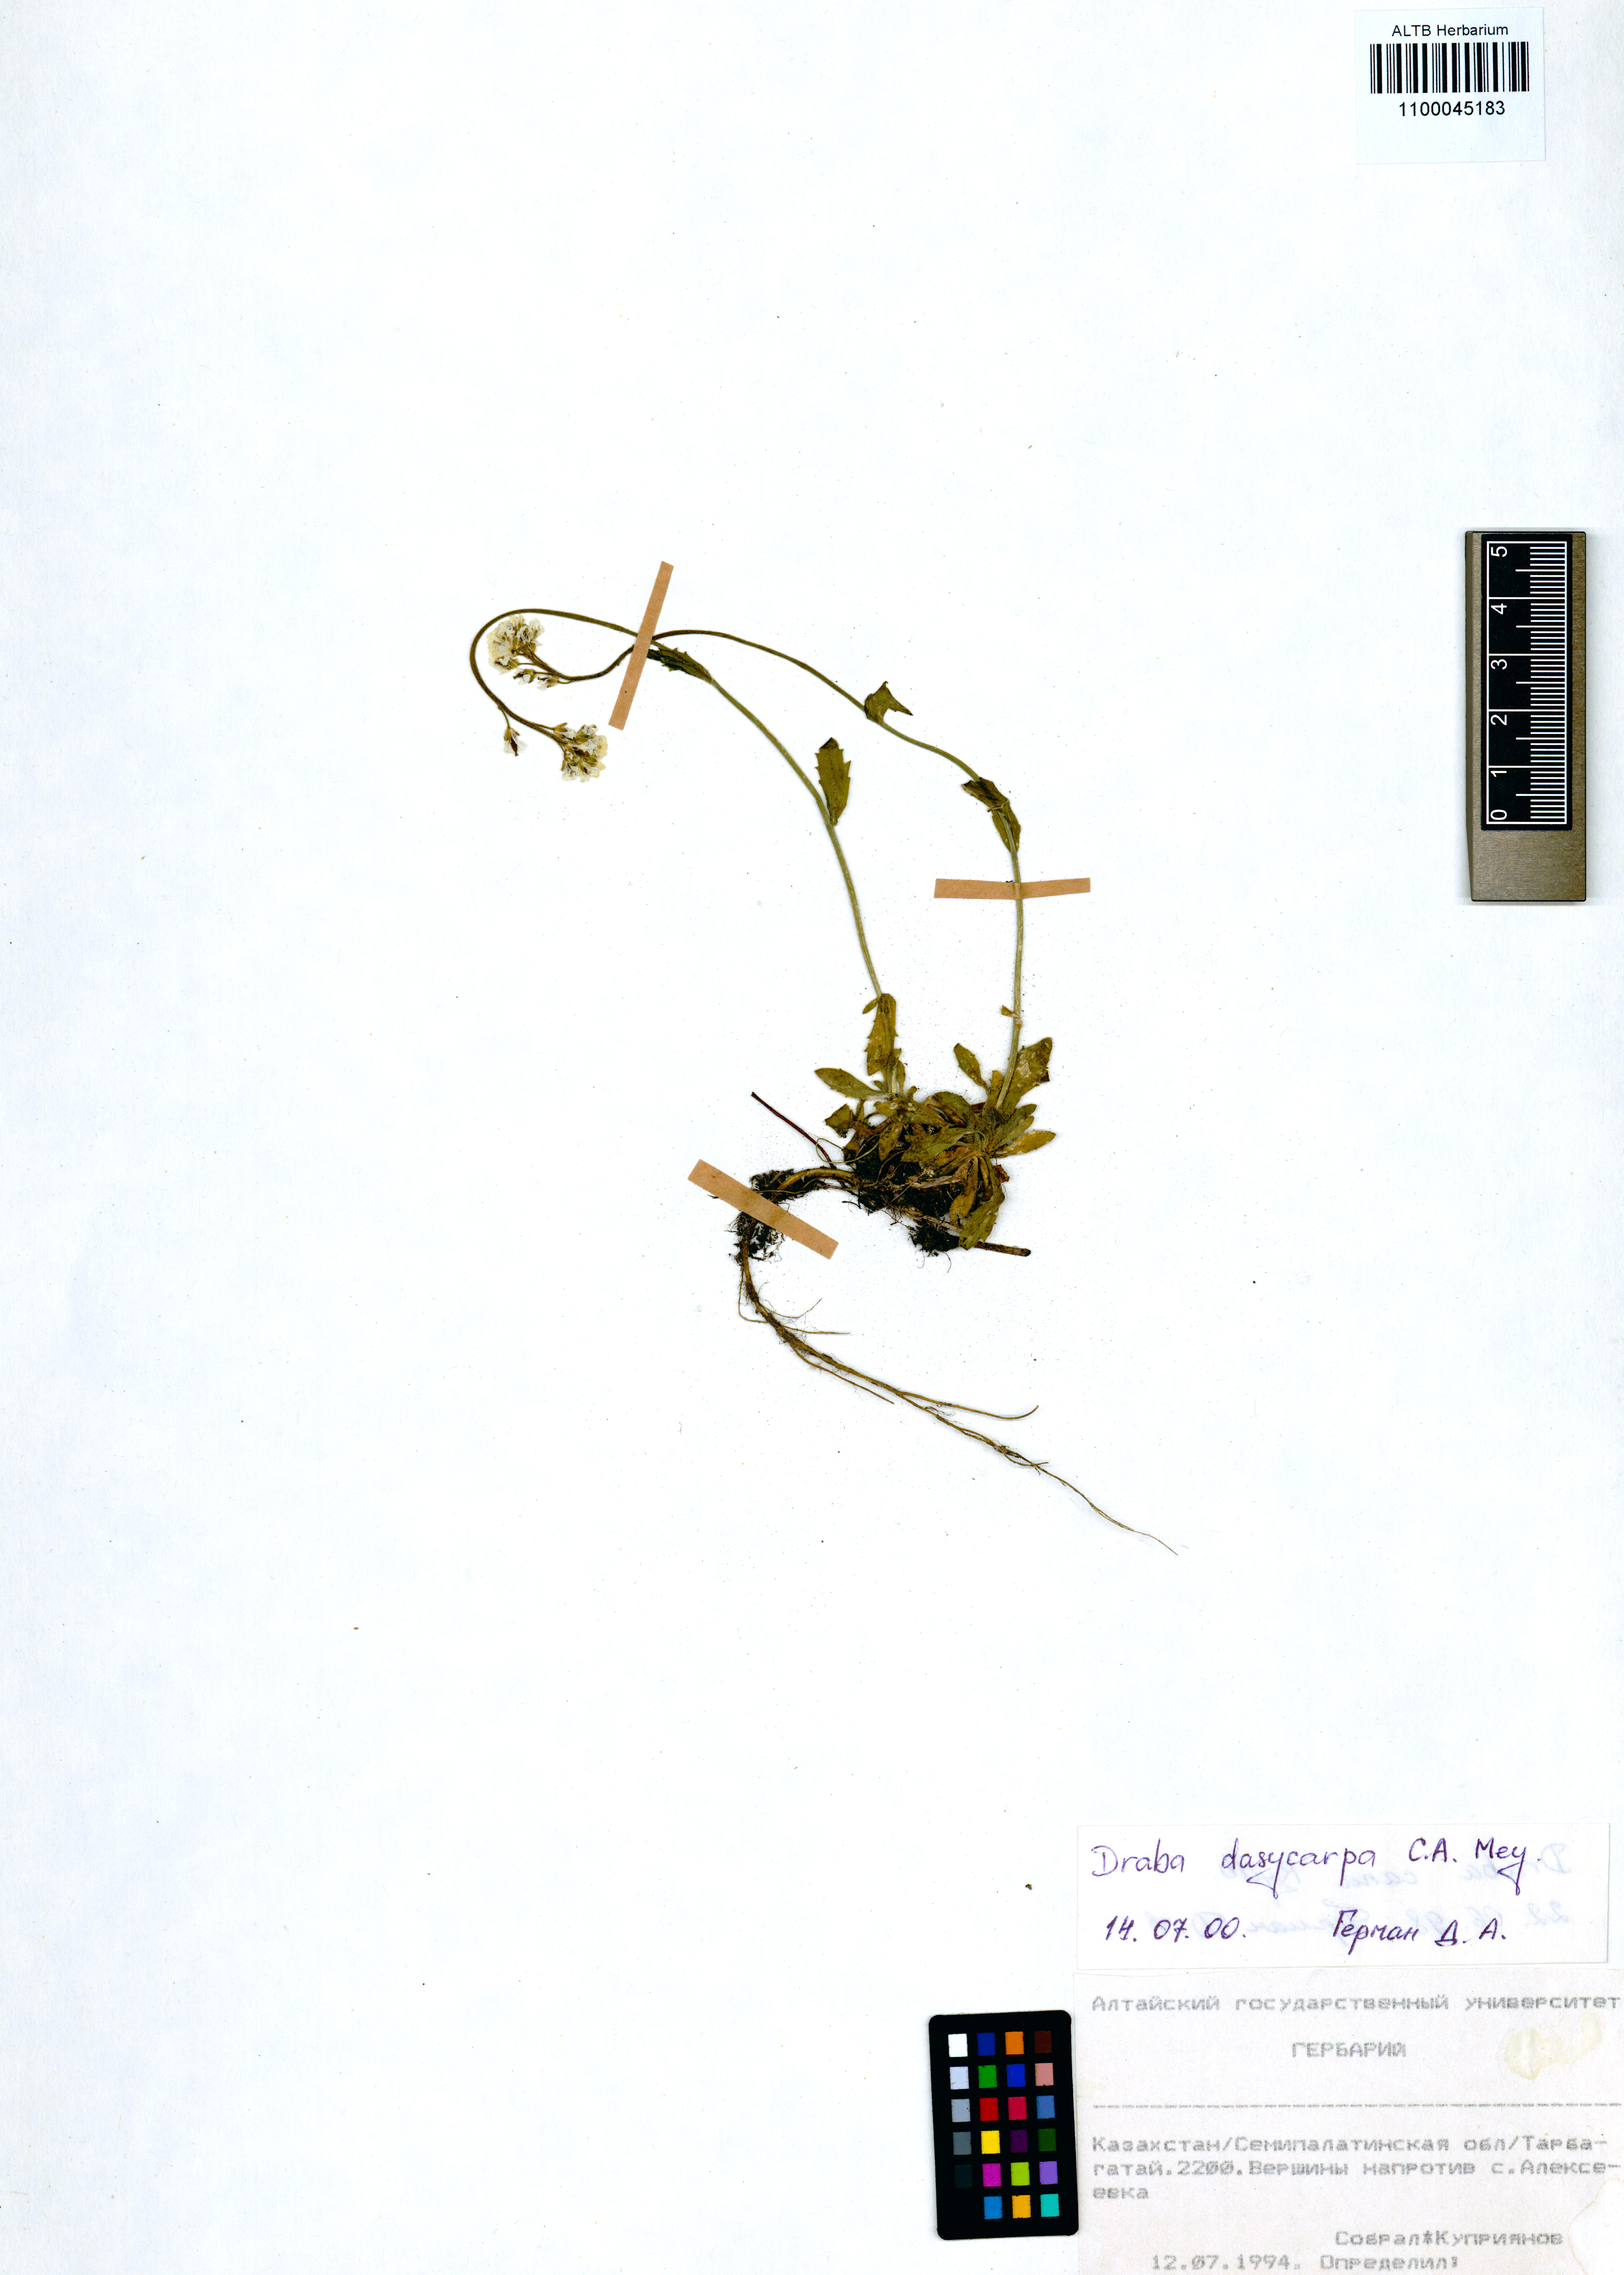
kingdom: Plantae
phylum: Tracheophyta
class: Magnoliopsida
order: Brassicales
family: Brassicaceae
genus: Draba
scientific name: Draba subamplexicaulis
